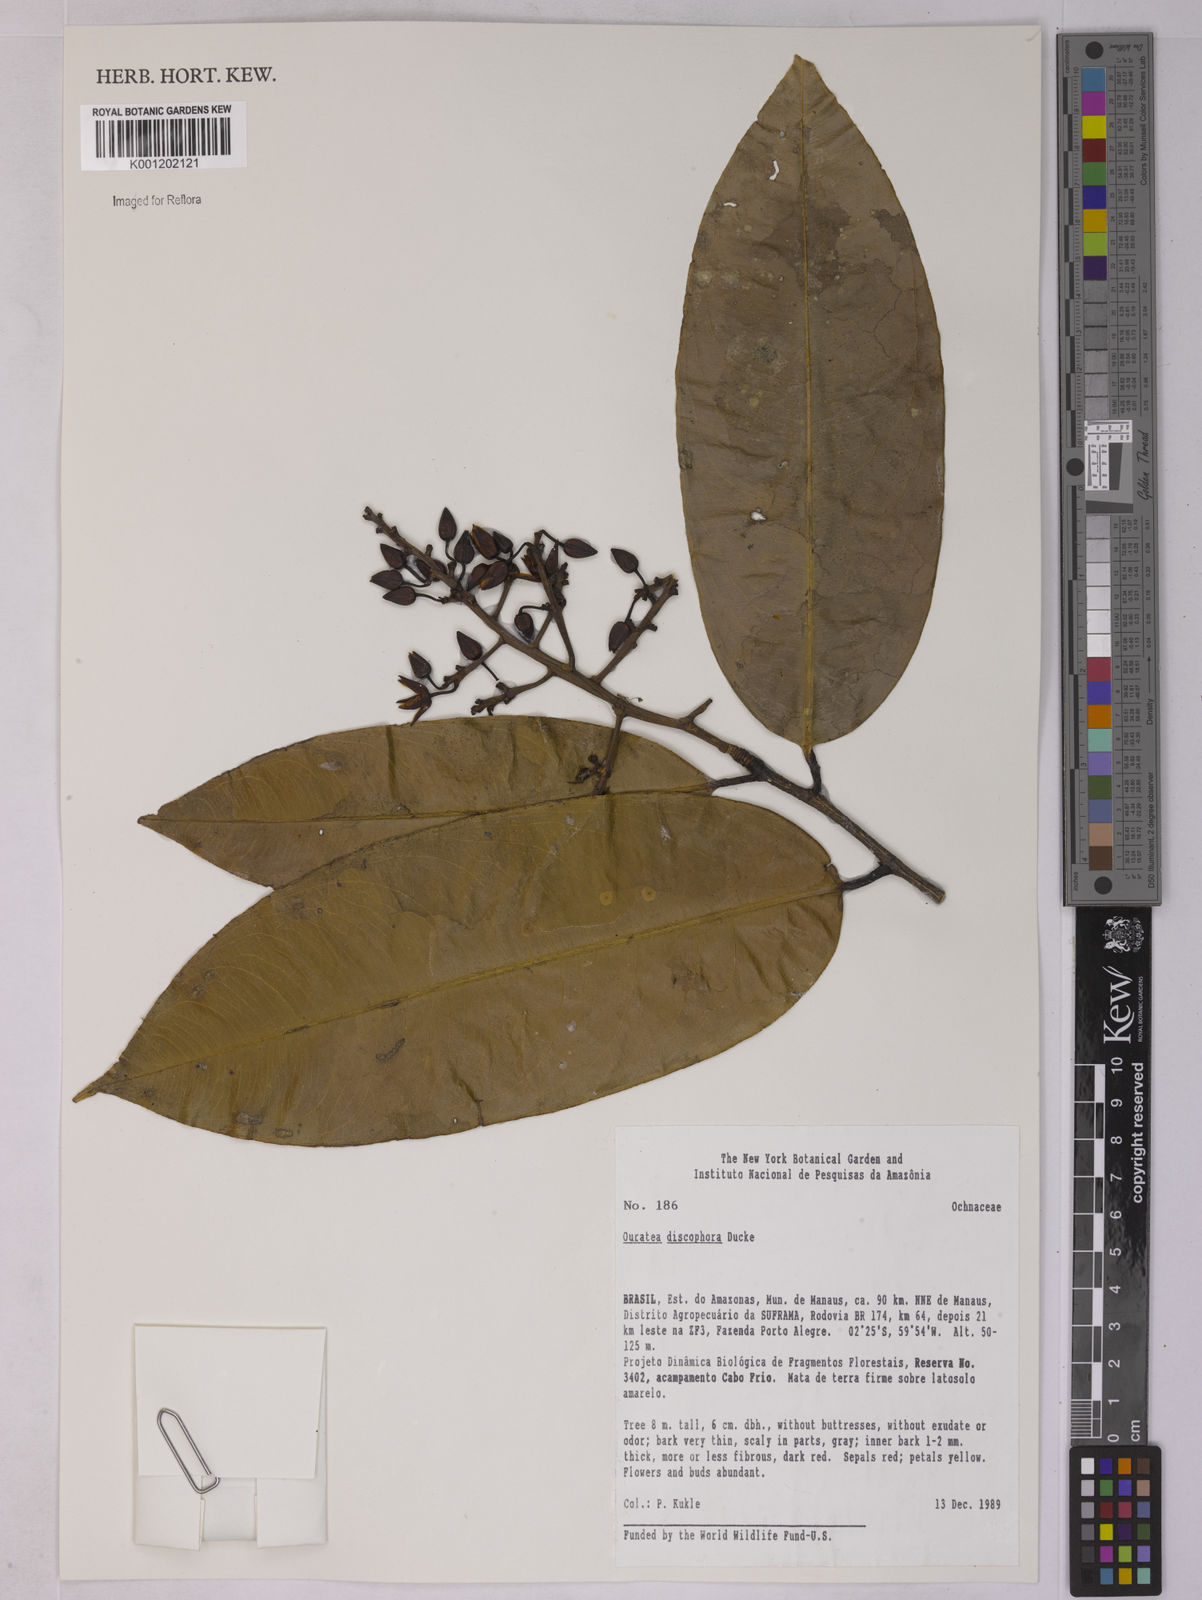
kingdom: Plantae
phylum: Tracheophyta
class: Magnoliopsida
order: Malpighiales
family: Ochnaceae
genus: Ouratea
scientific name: Ouratea discophora
